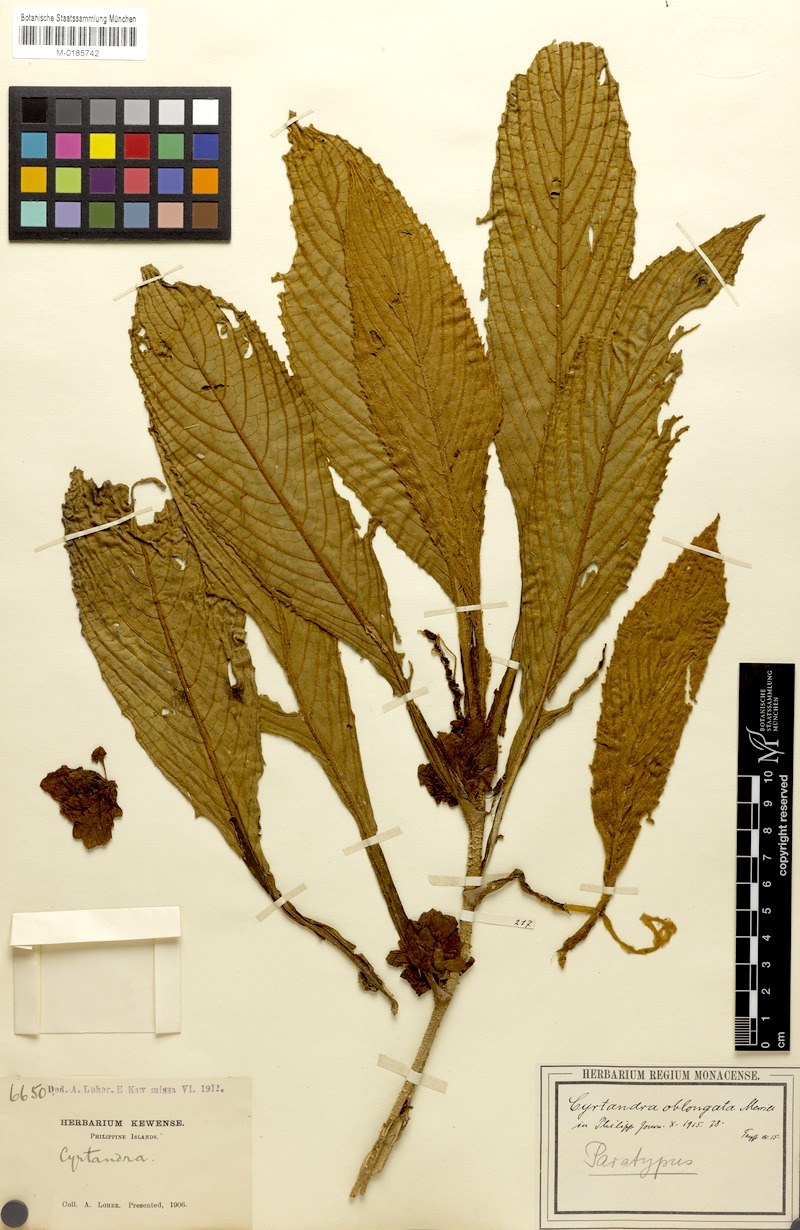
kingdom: Plantae
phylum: Tracheophyta
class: Magnoliopsida
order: Lamiales
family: Gesneriaceae
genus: Cyrtandra
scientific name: Cyrtandra oblongata
